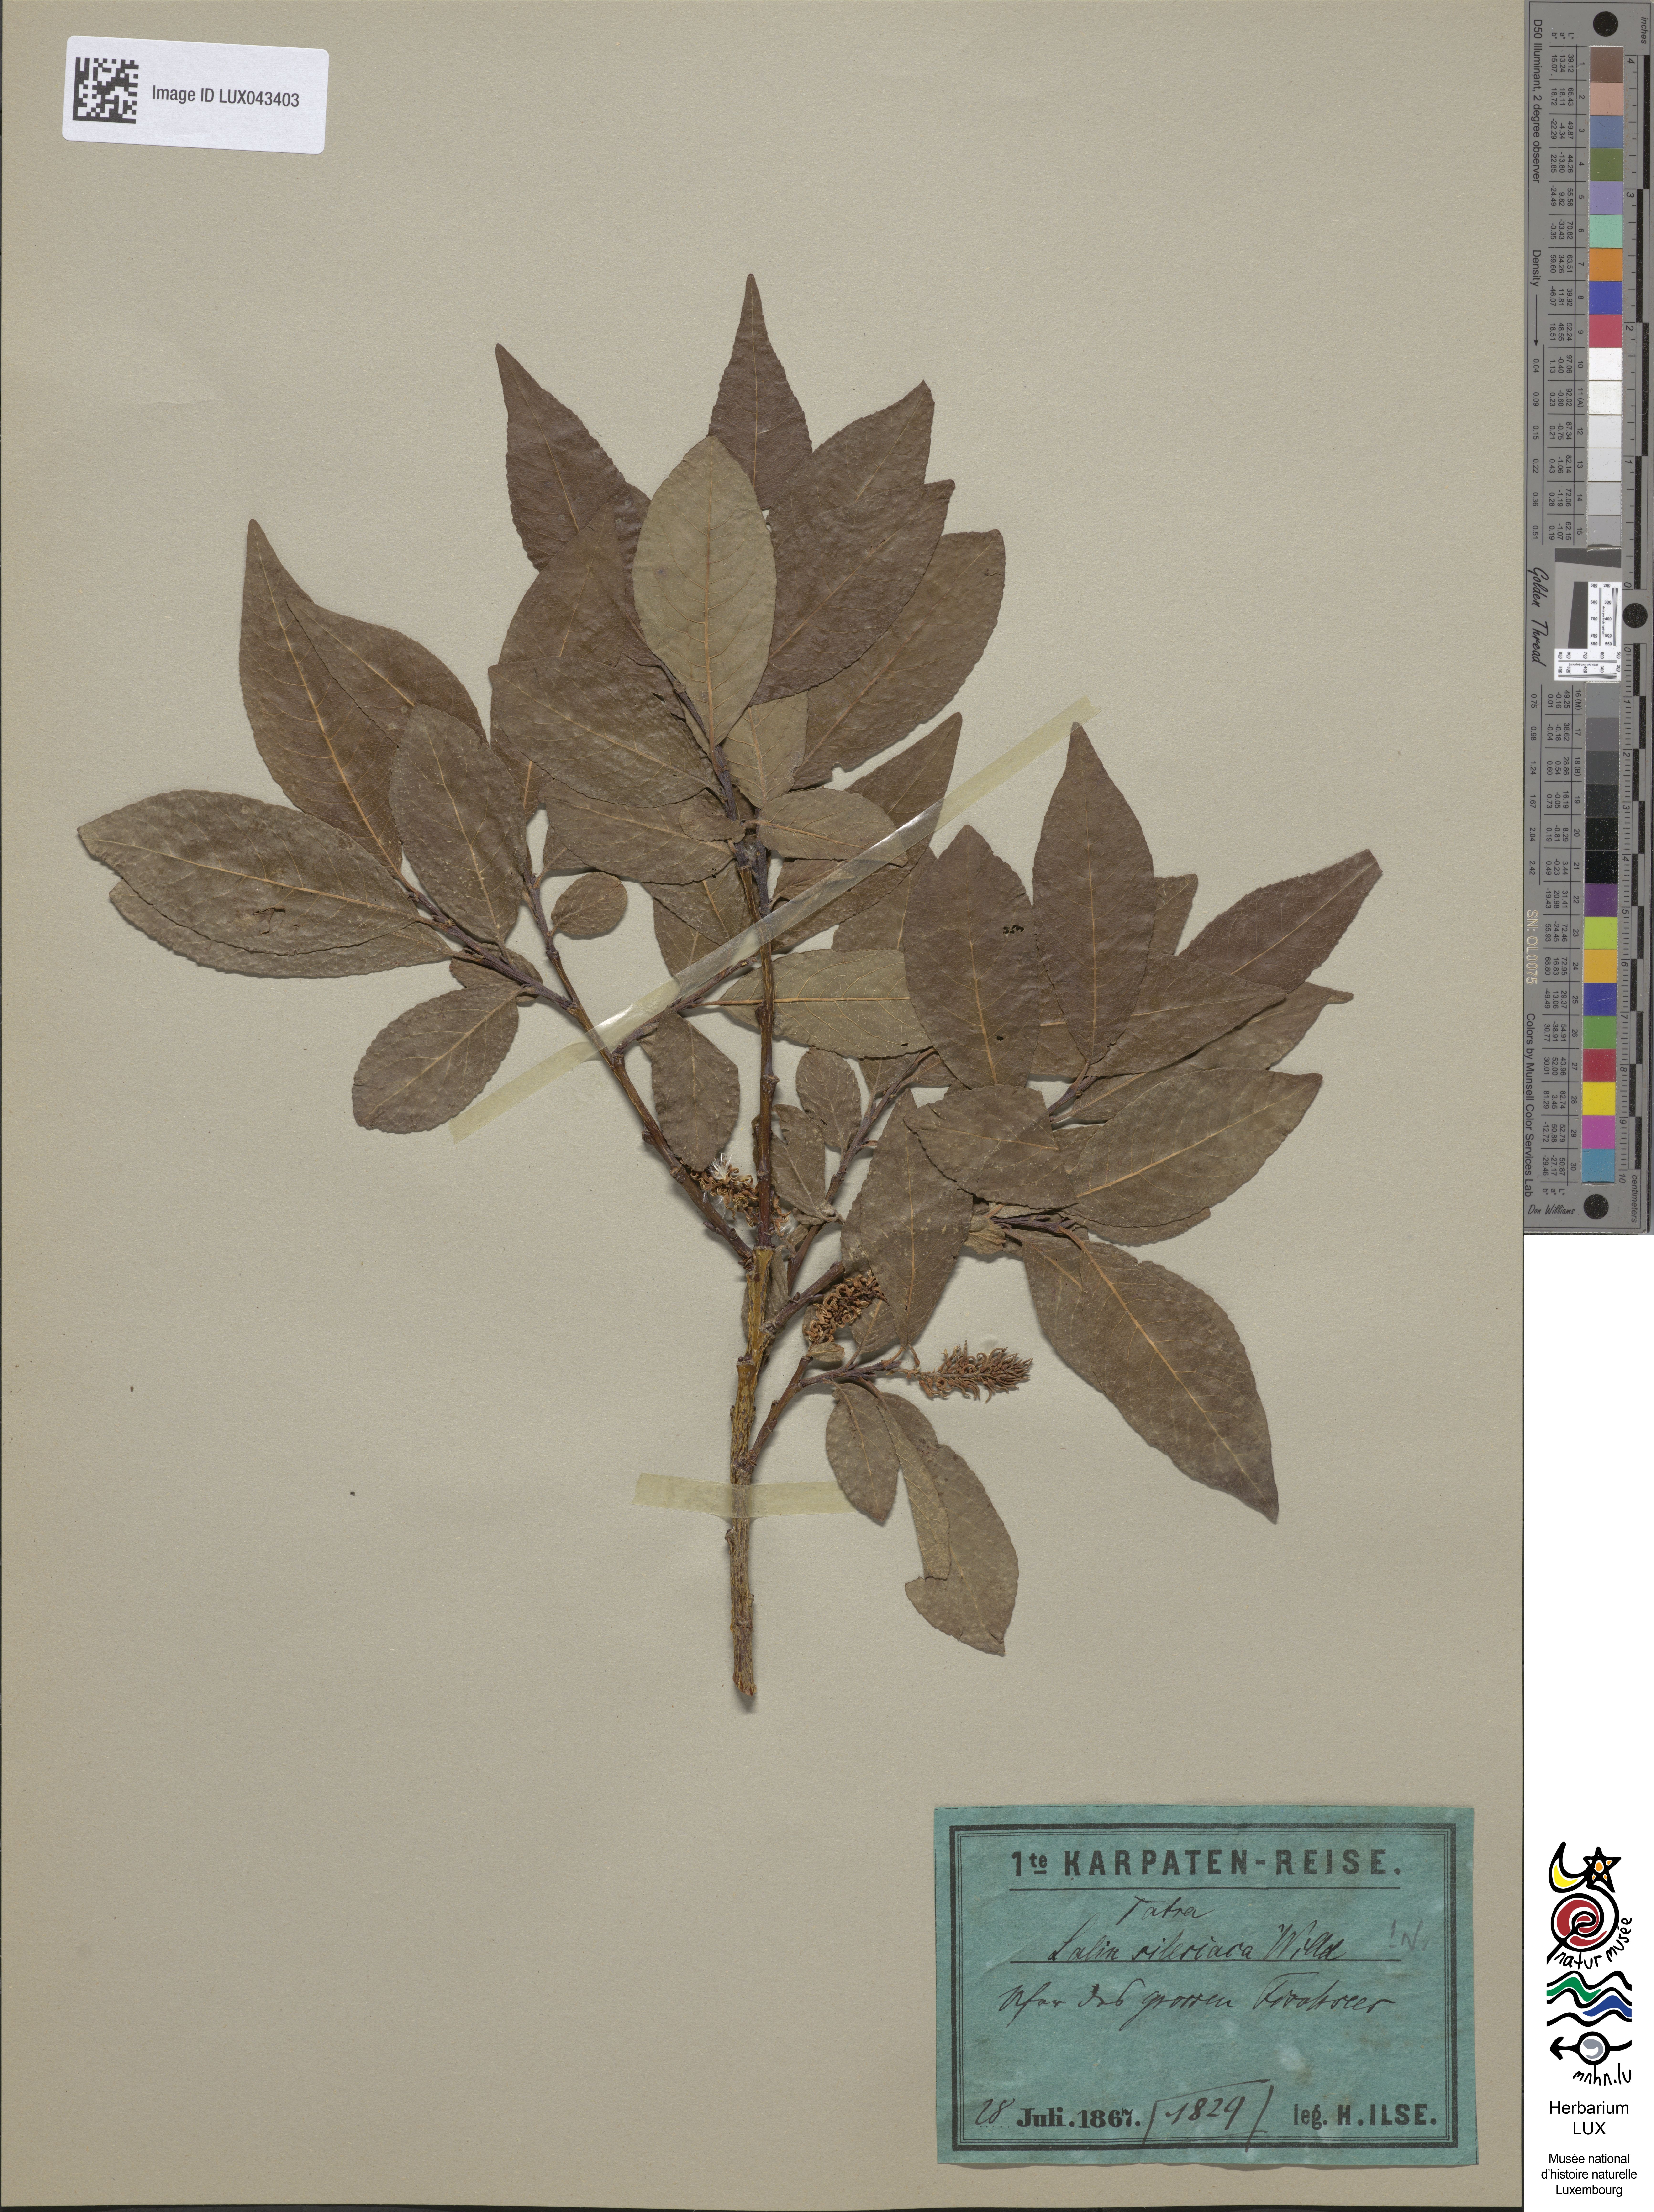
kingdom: Plantae
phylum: Tracheophyta
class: Magnoliopsida
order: Malpighiales
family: Salicaceae
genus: Salix
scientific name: Salix silesiaca
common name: Silesian willow
